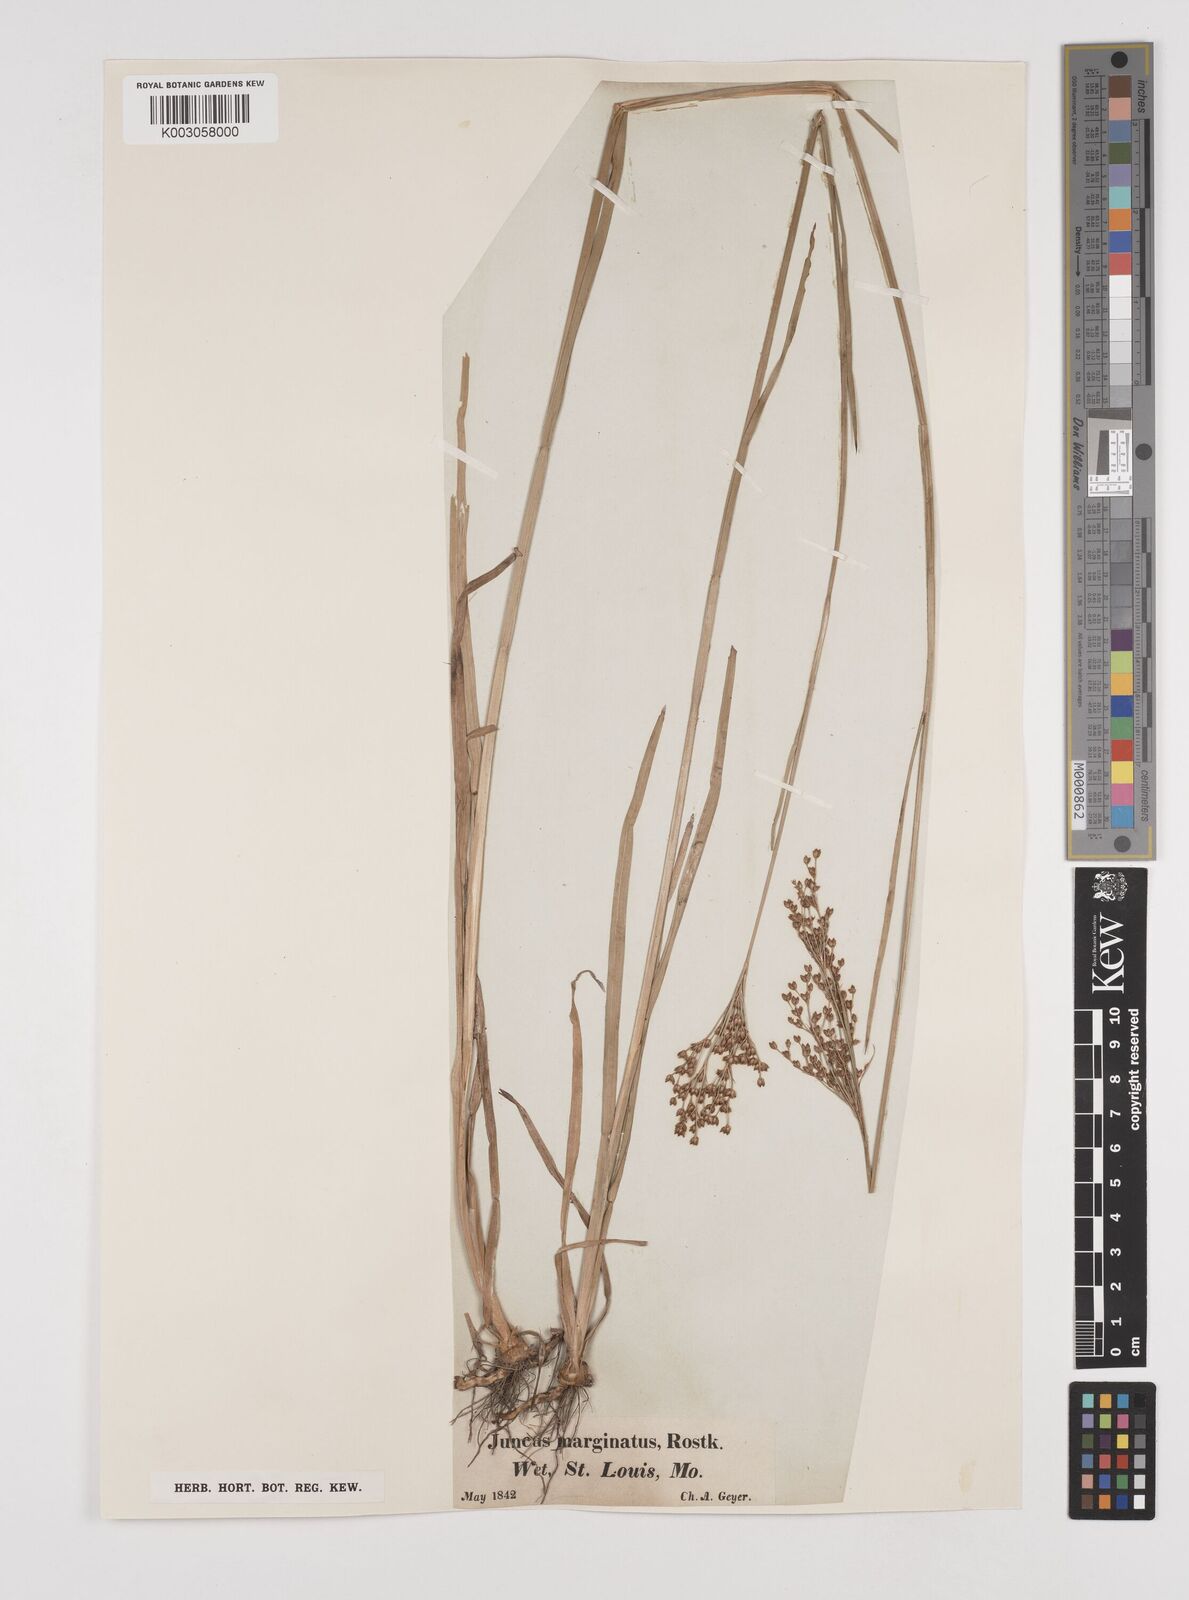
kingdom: Plantae
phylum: Tracheophyta
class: Liliopsida
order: Poales
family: Juncaceae
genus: Juncus
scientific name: Juncus marginatus
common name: Grass-leaf rush
